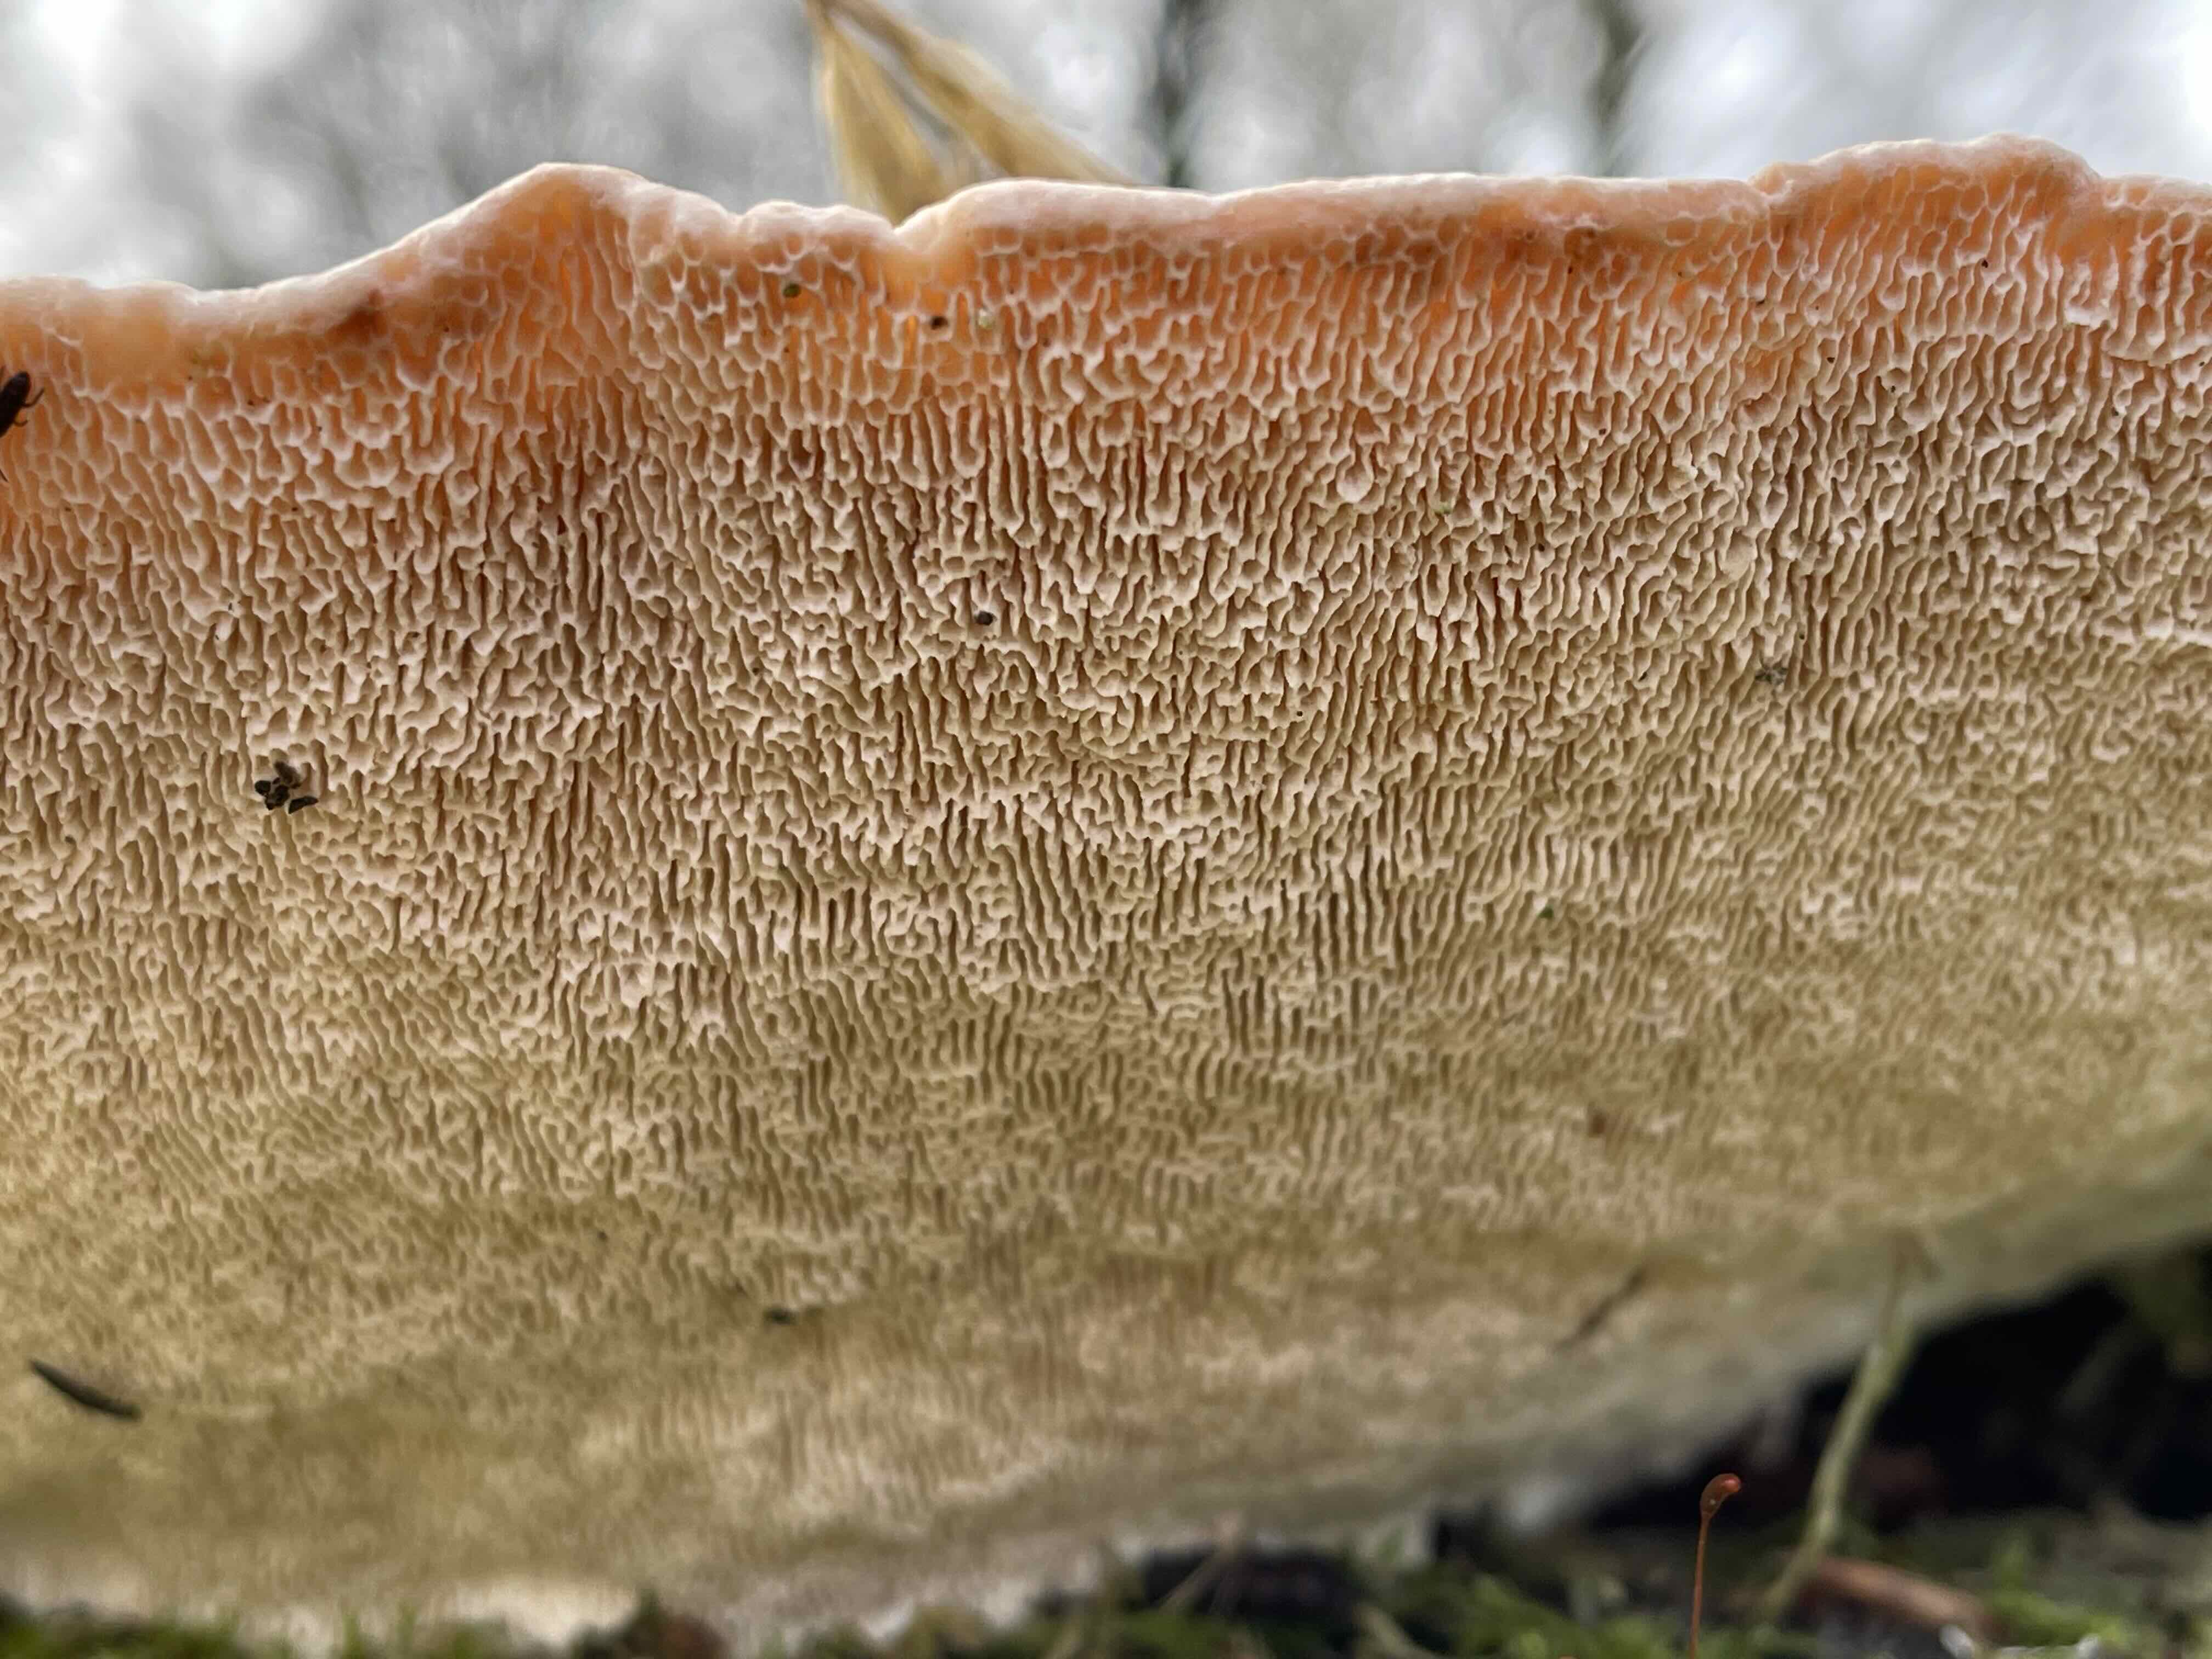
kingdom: Fungi
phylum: Basidiomycota
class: Agaricomycetes
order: Polyporales
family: Polyporaceae
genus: Trametes
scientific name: Trametes gibbosa
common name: puklet læderporesvamp
